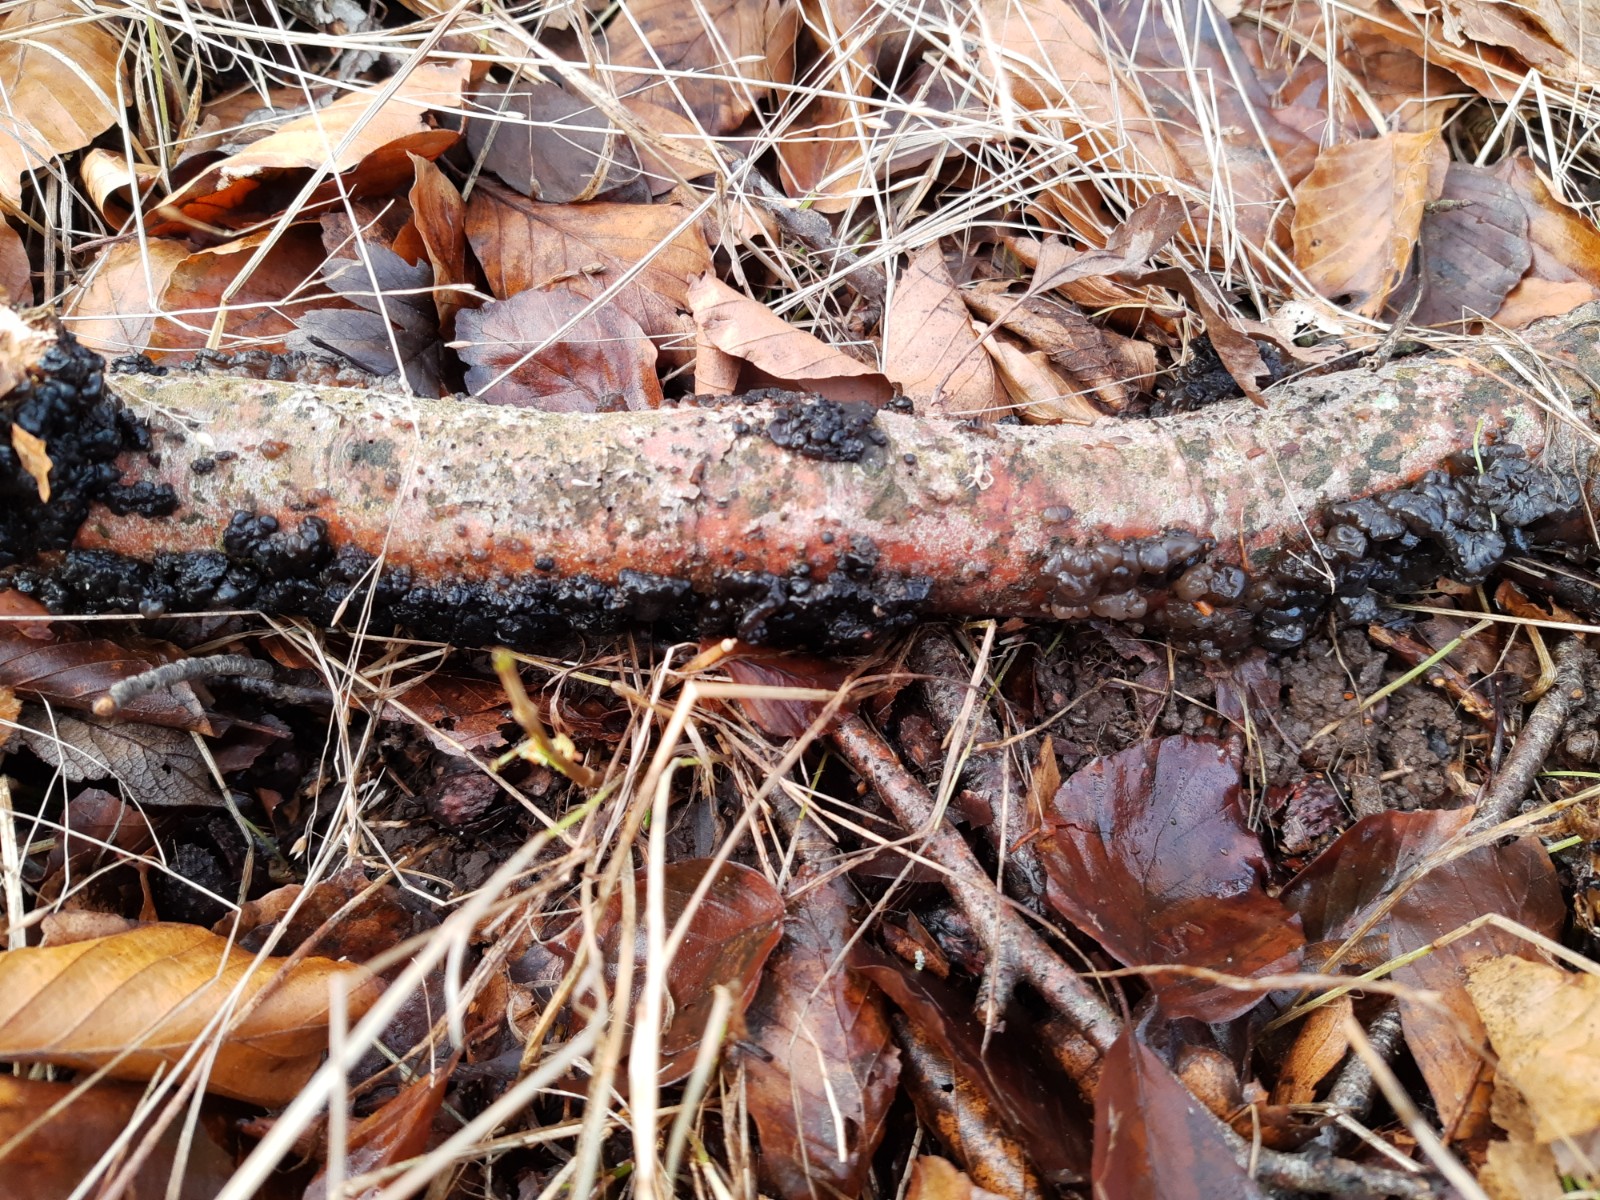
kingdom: Fungi
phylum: Basidiomycota
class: Agaricomycetes
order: Auriculariales
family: Auriculariaceae
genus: Exidia
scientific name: Exidia nigricans
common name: almindelig bævretop
